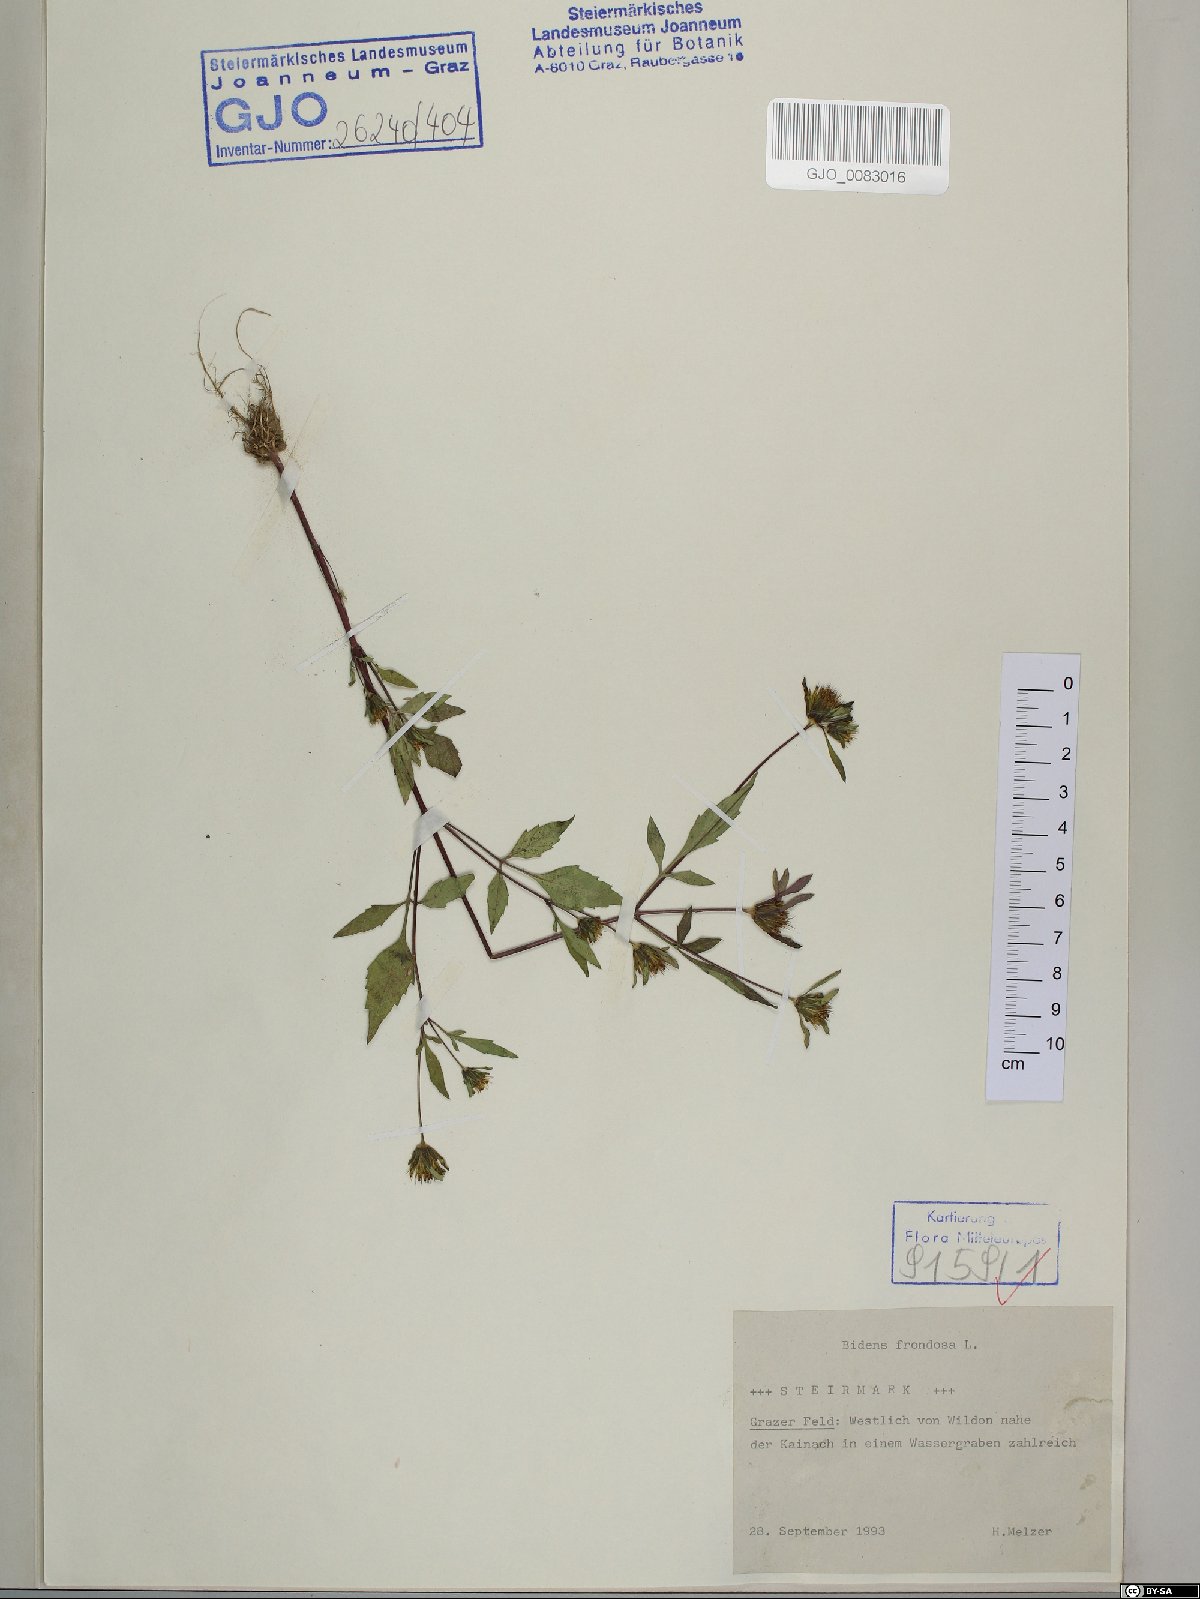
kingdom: Plantae
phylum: Tracheophyta
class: Magnoliopsida
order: Asterales
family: Asteraceae
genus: Bidens
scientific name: Bidens frondosa
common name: Beggarticks
